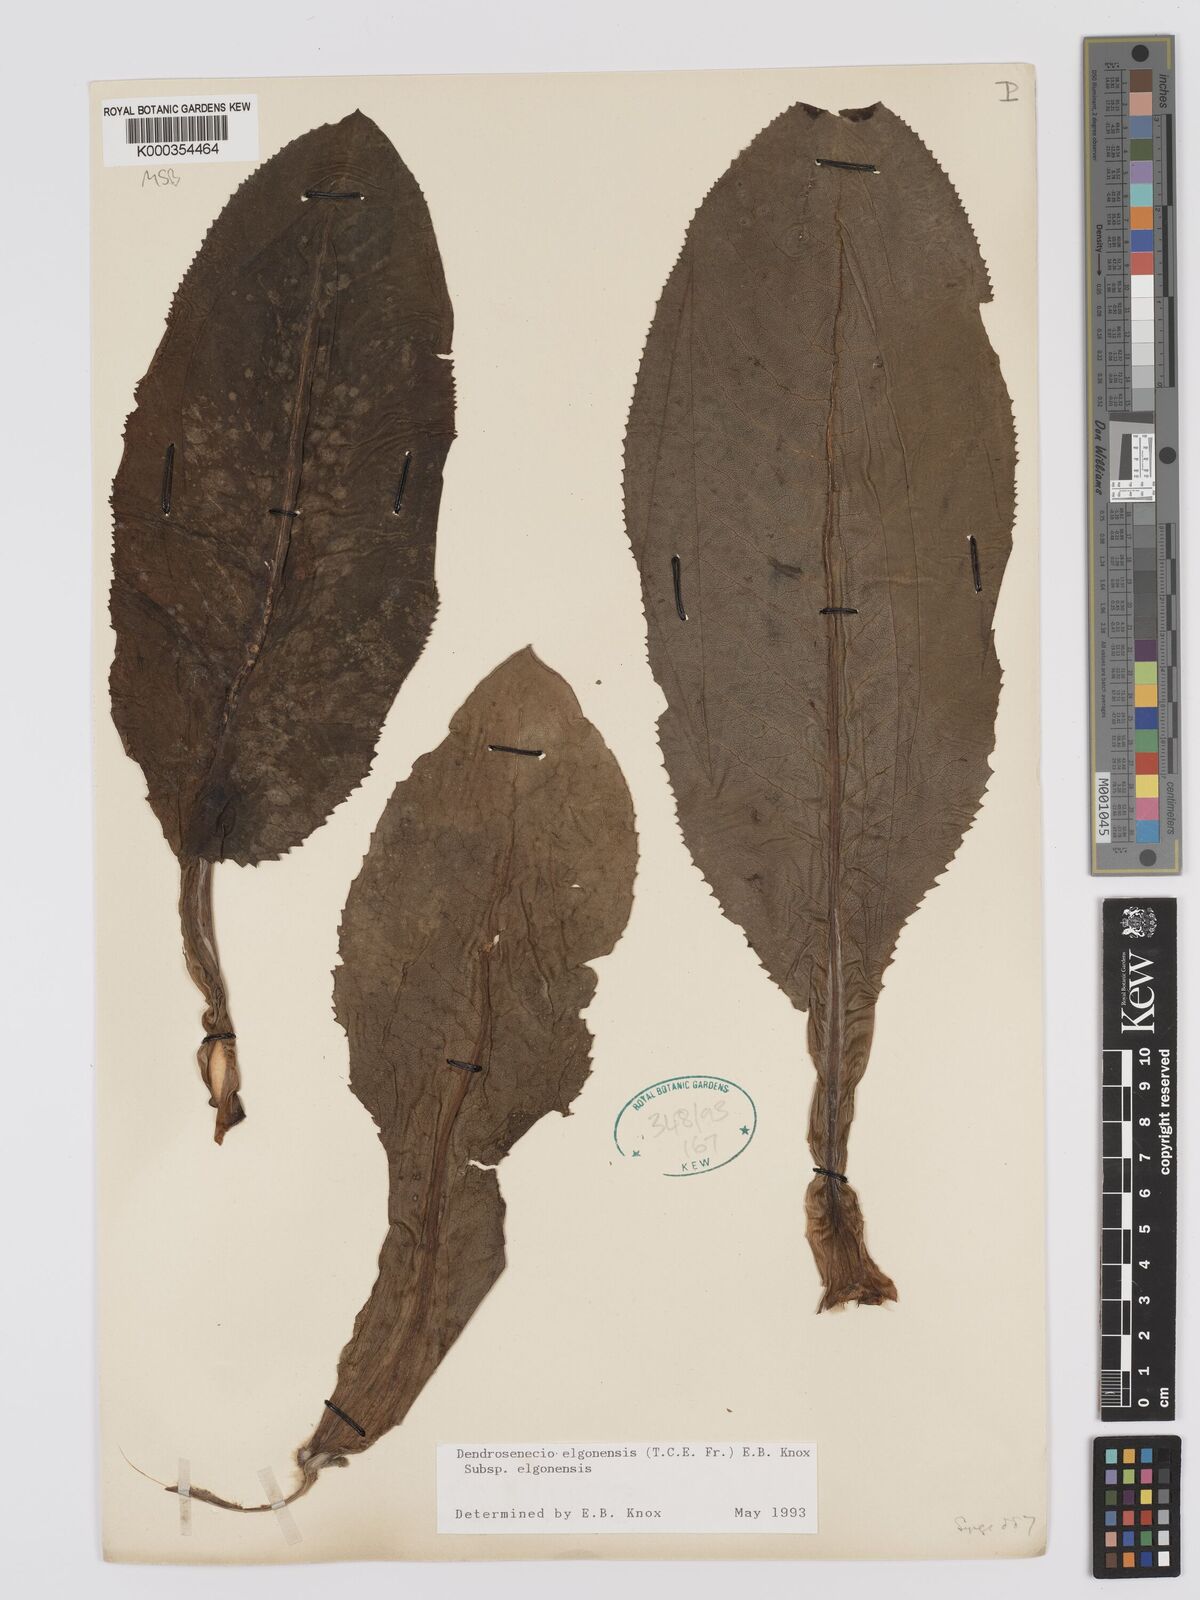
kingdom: Plantae
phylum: Tracheophyta
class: Magnoliopsida
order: Asterales
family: Asteraceae
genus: Dendrosenecio
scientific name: Dendrosenecio elgonensis
